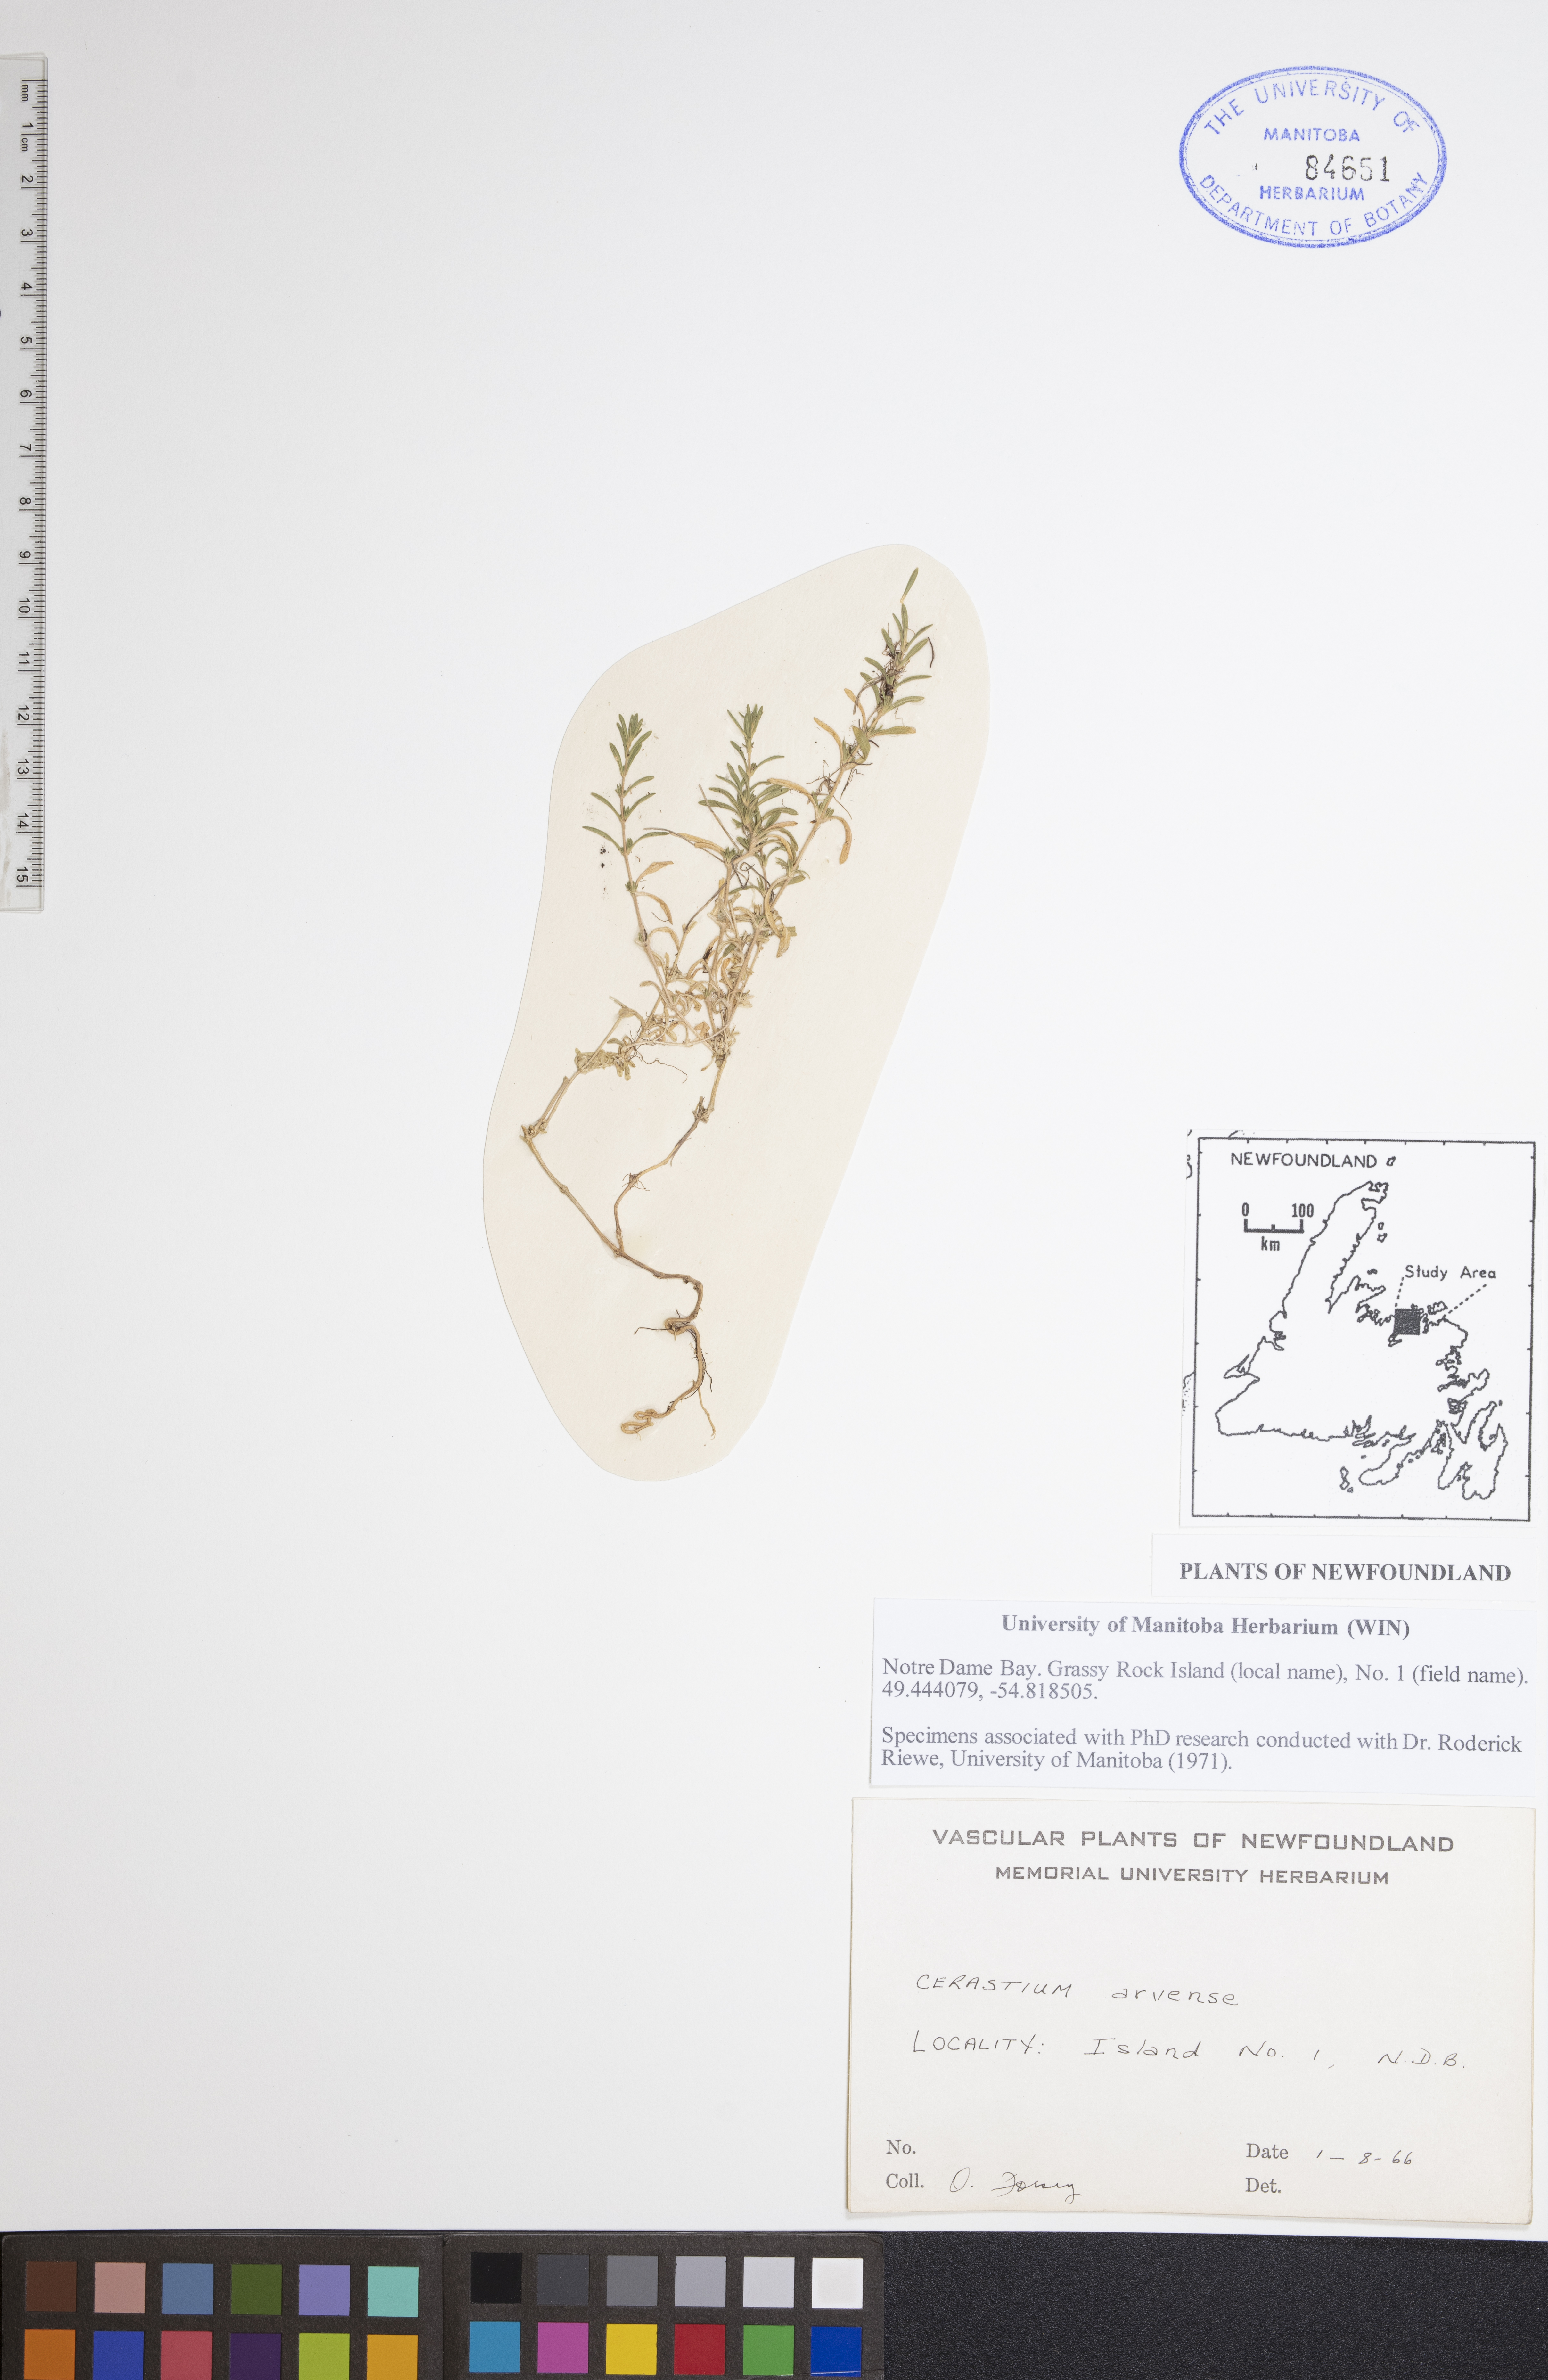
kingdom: Plantae
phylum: Tracheophyta
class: Magnoliopsida
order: Caryophyllales
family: Caryophyllaceae
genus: Cerastium
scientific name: Cerastium arvense
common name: Field mouse-ear
